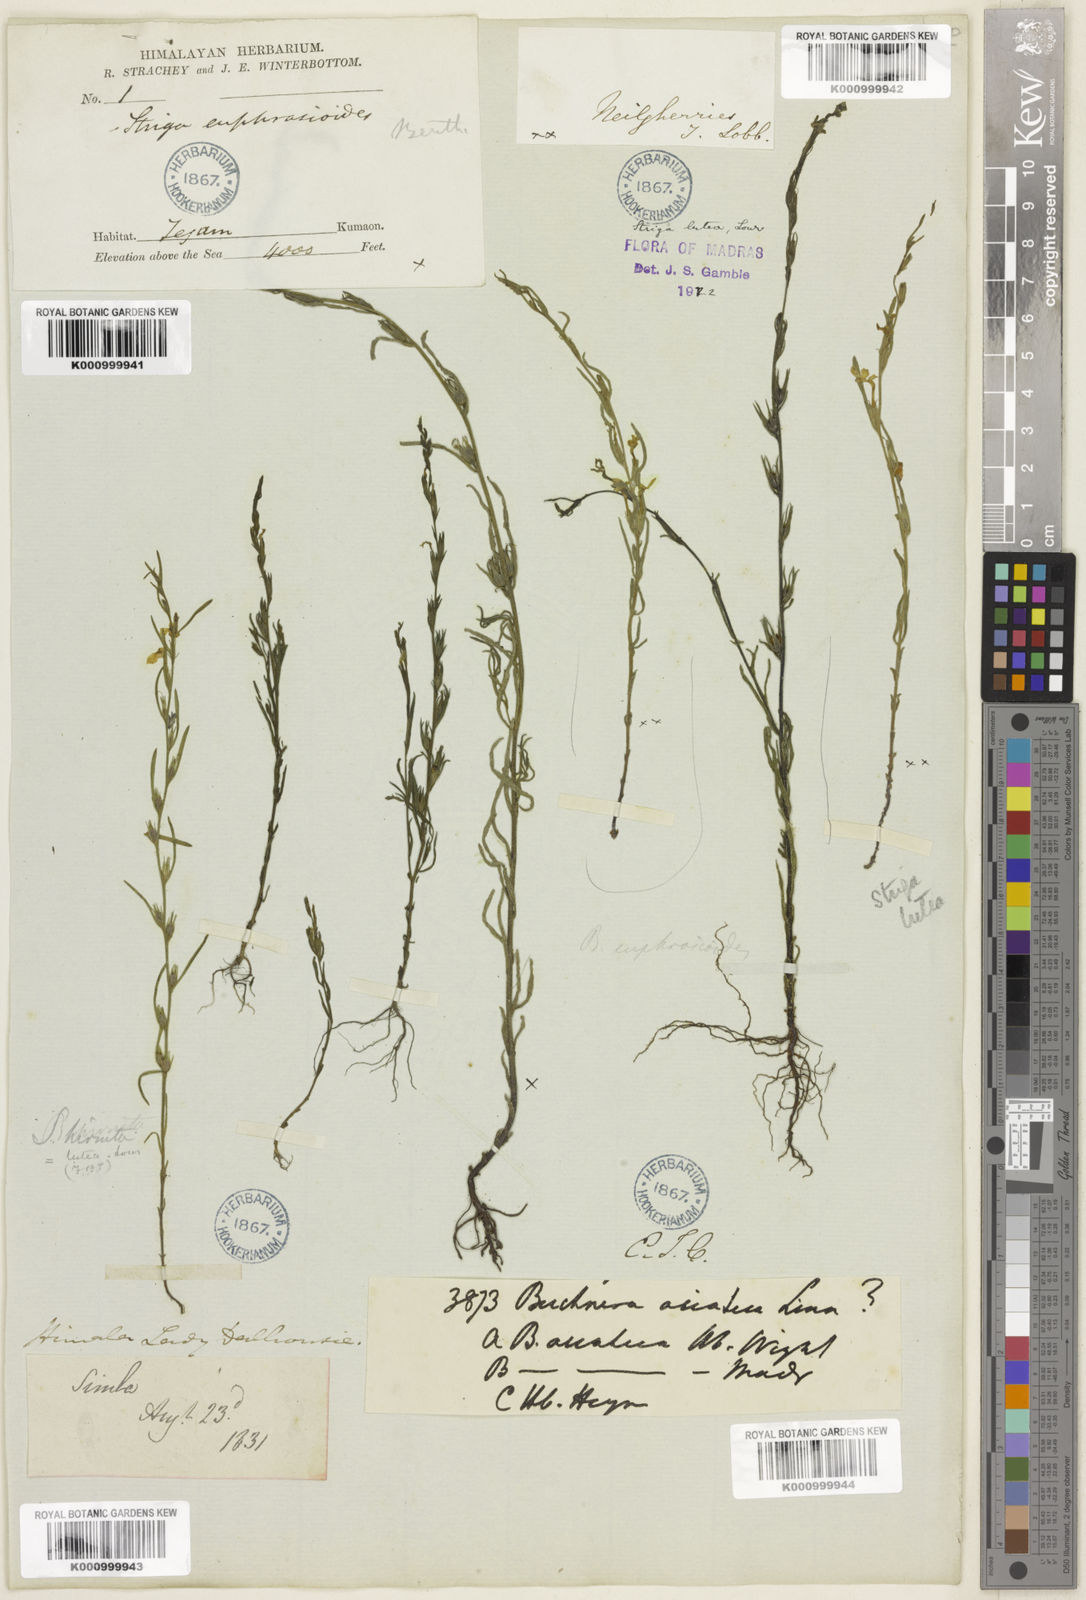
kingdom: Plantae
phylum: Tracheophyta
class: Magnoliopsida
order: Lamiales
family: Orobanchaceae
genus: Striga
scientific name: Striga angustifolia
